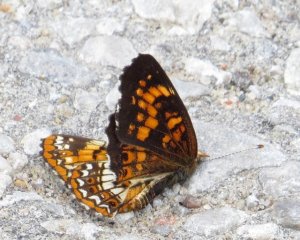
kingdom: Animalia
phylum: Arthropoda
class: Insecta
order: Lepidoptera
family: Nymphalidae
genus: Chlosyne
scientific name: Chlosyne harrisii
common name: Harris's Checkerspot
